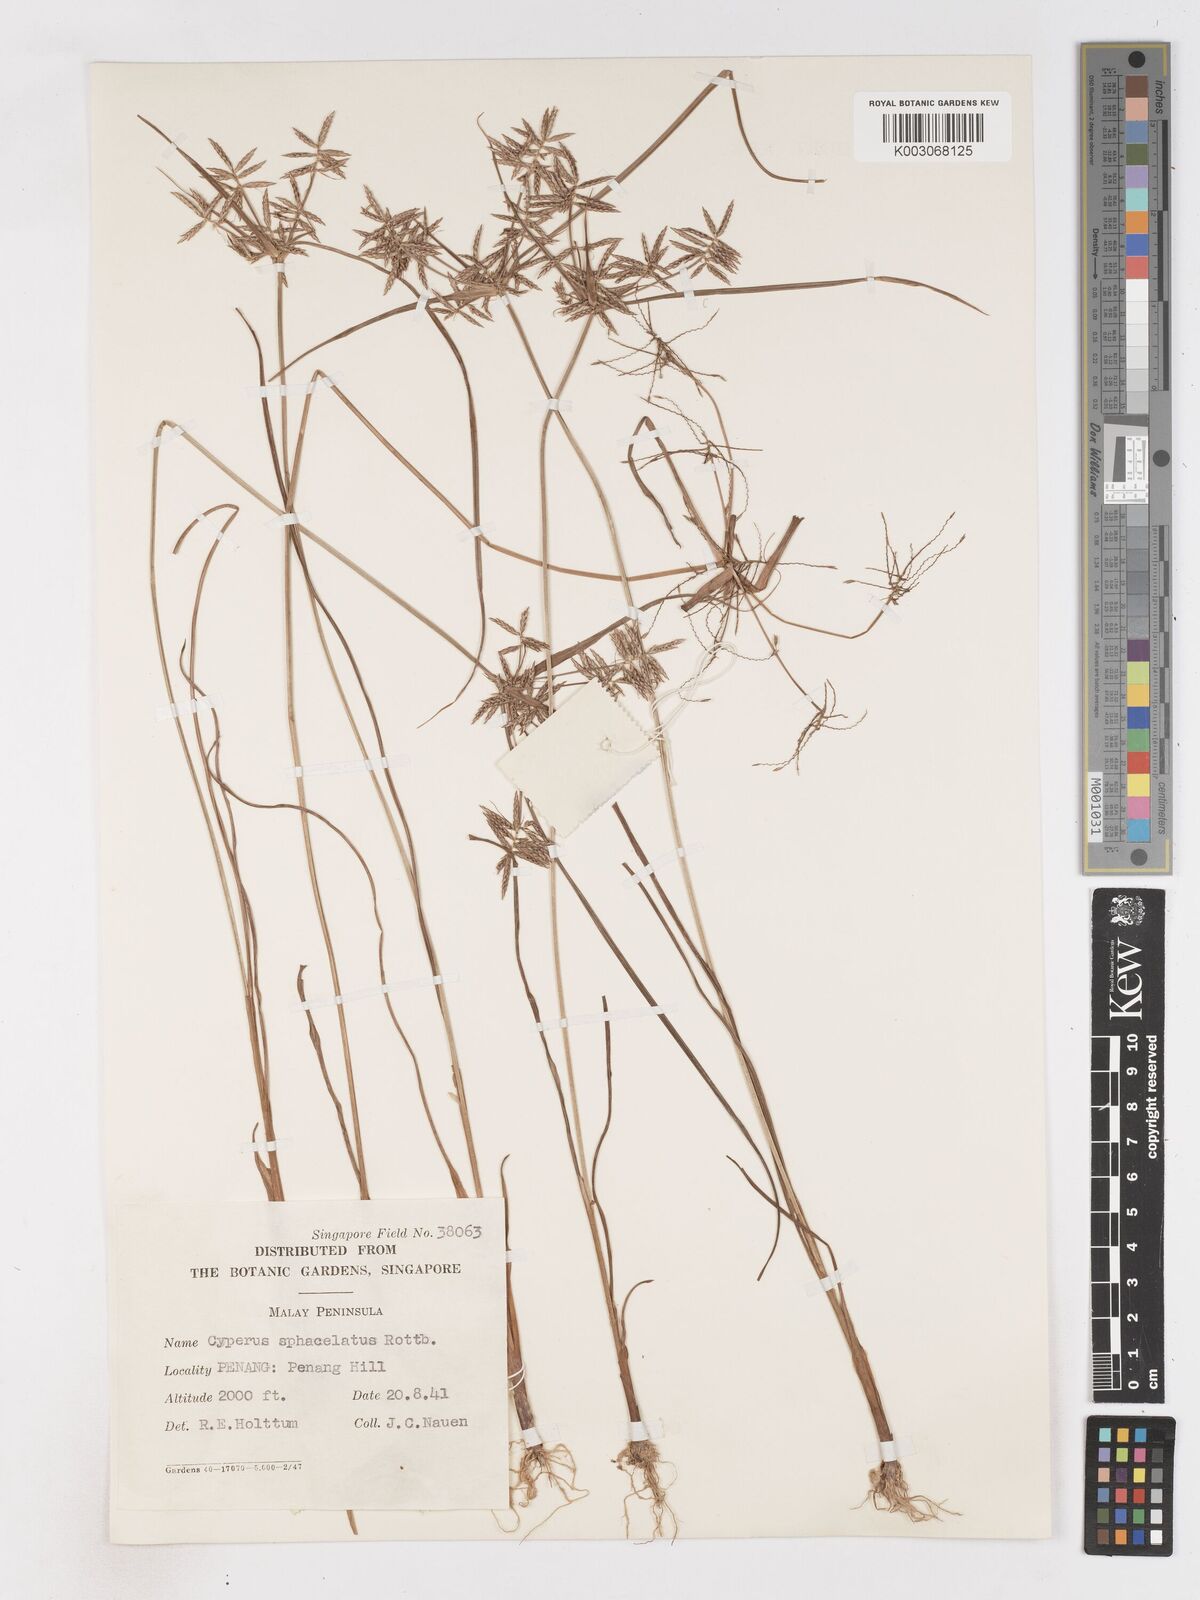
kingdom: Plantae
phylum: Tracheophyta
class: Liliopsida
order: Poales
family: Cyperaceae
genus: Cyperus
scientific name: Cyperus sphacelatus
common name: Roadside flatsedge
